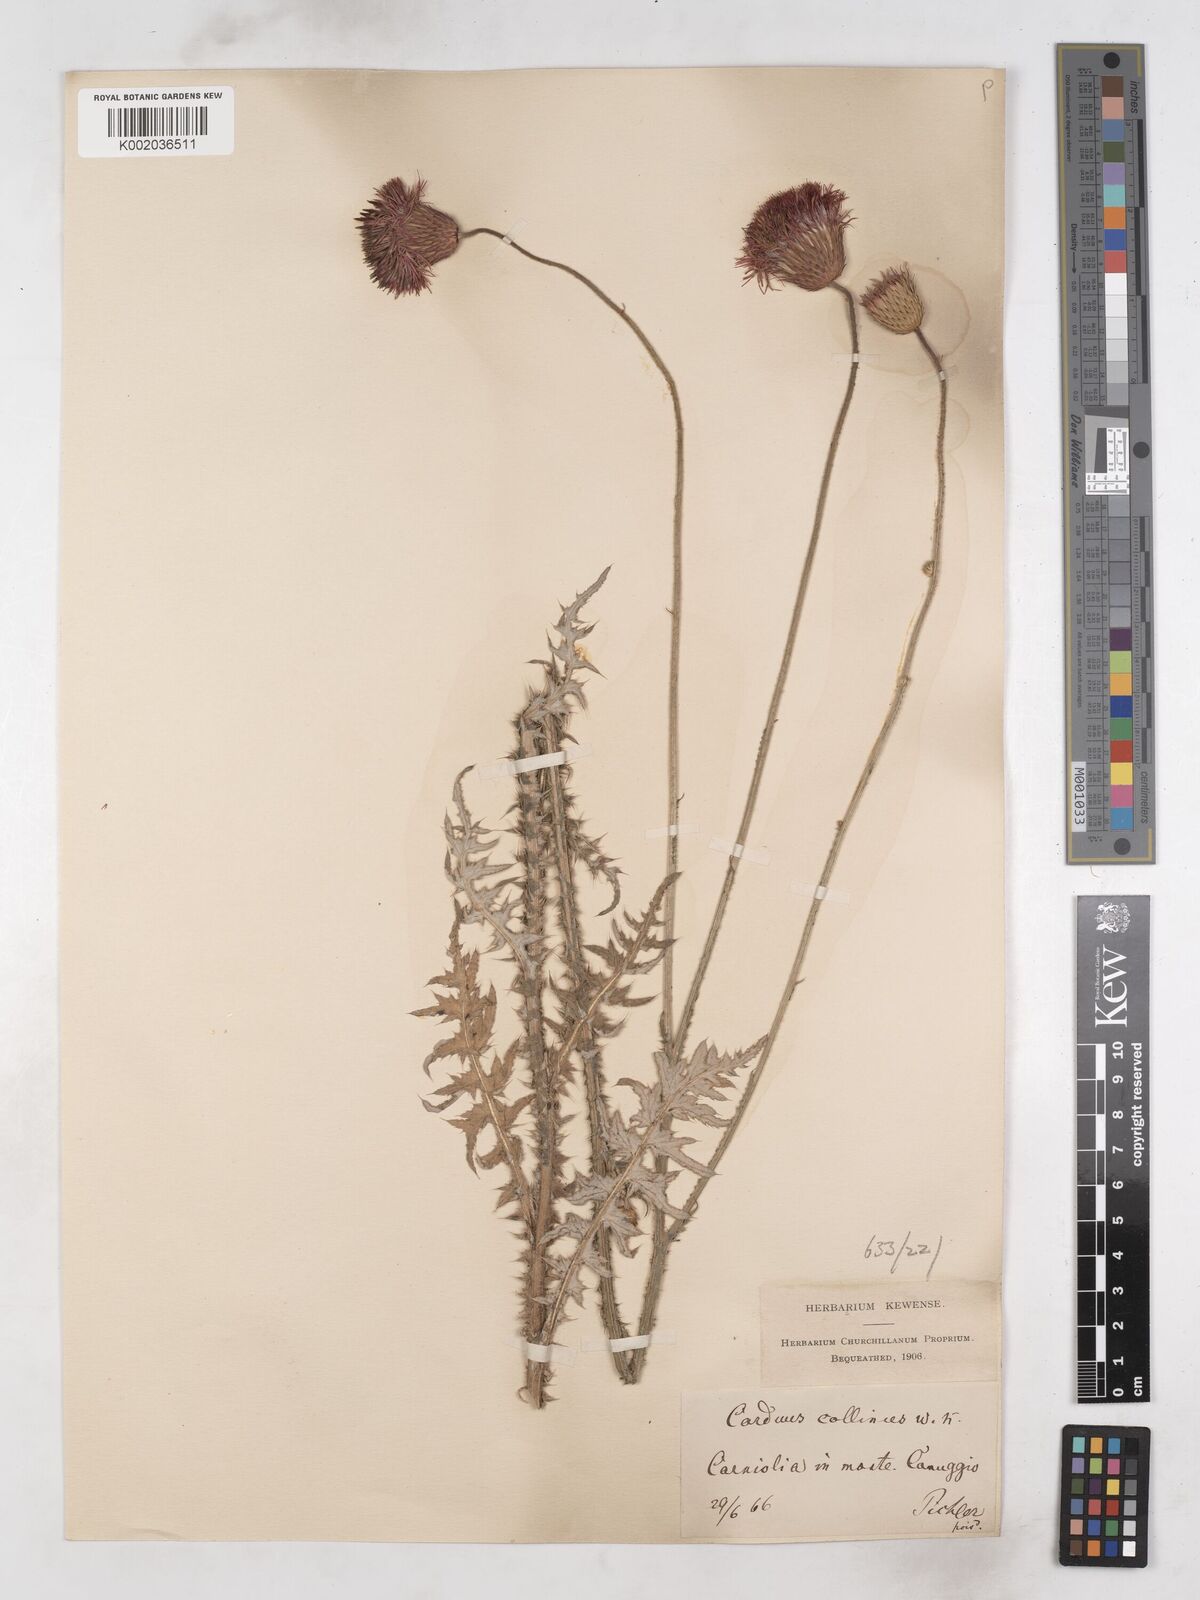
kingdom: Plantae
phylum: Tracheophyta
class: Magnoliopsida
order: Asterales
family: Asteraceae
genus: Carduus
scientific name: Carduus collinus
